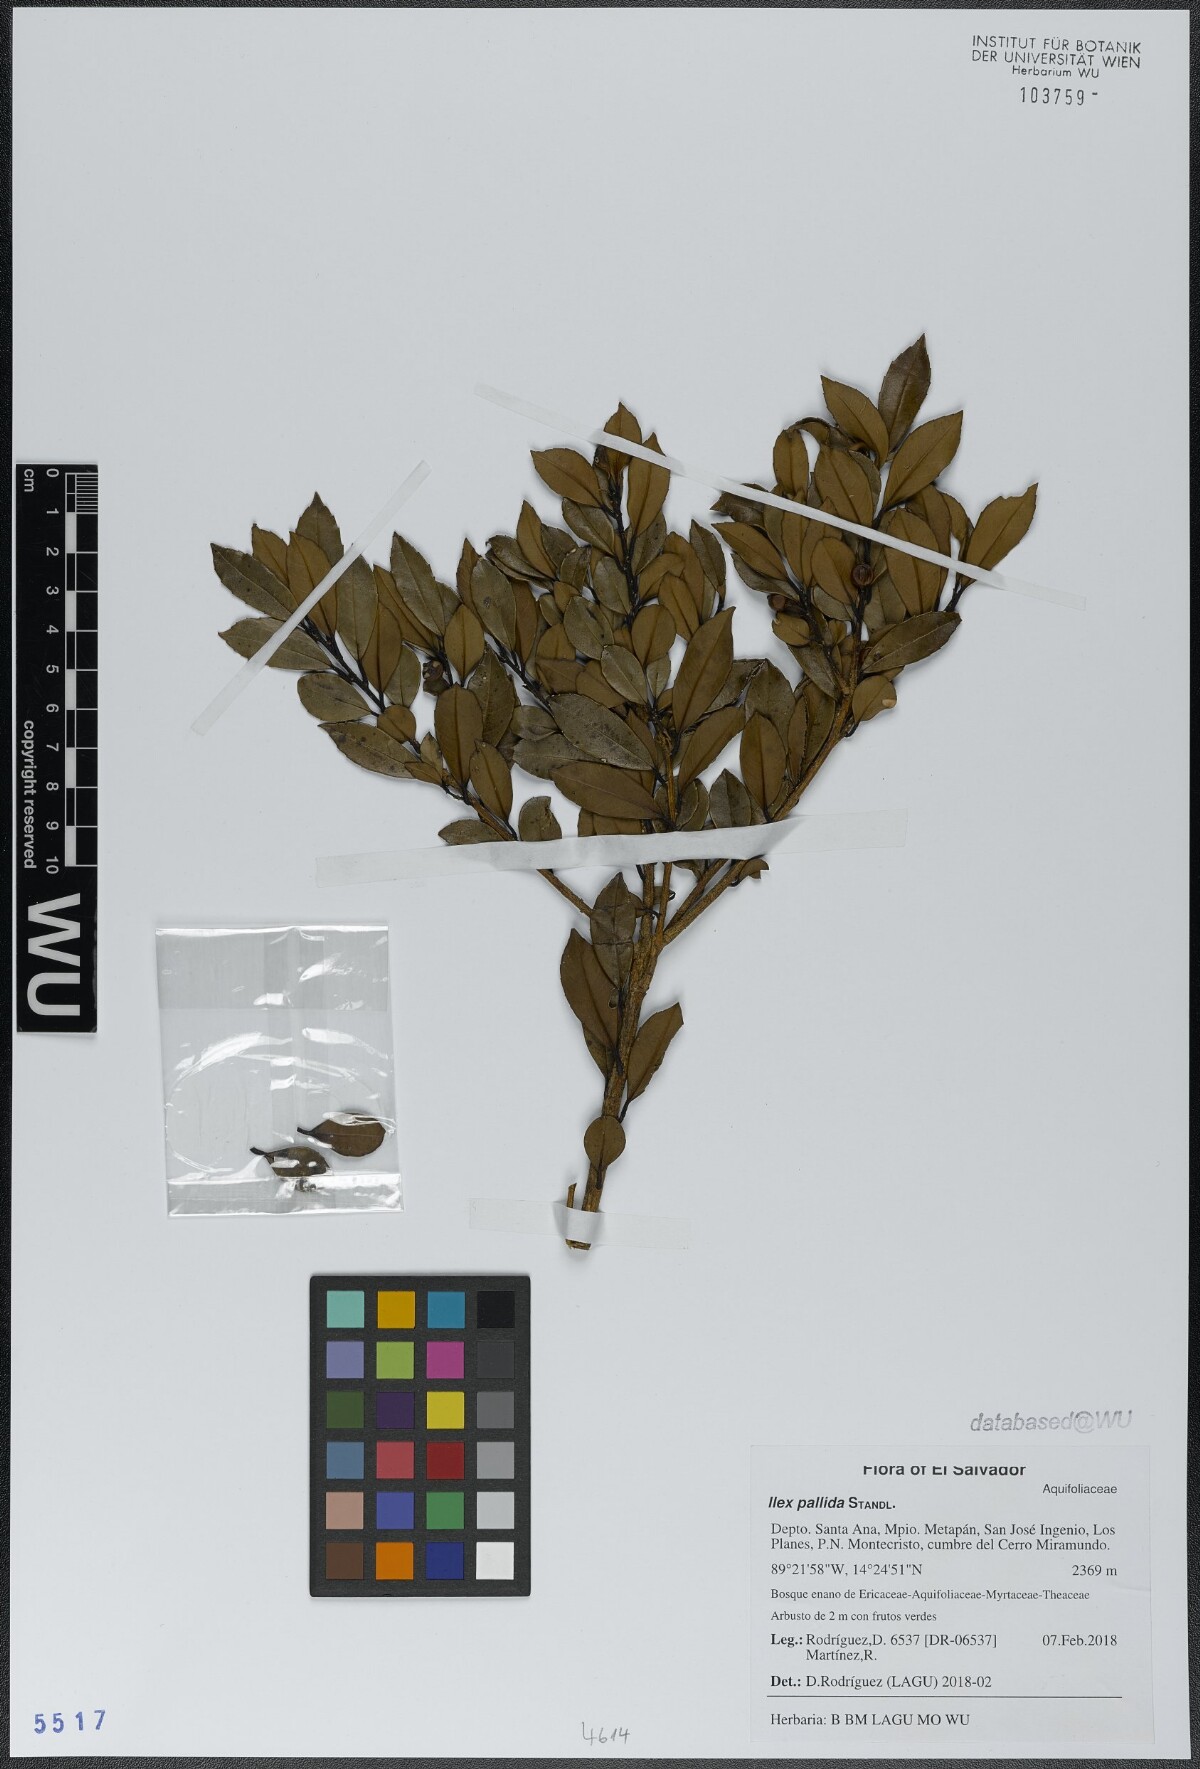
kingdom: Plantae
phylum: Tracheophyta
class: Magnoliopsida
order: Aquifoliales
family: Aquifoliaceae
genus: Ilex
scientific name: Ilex pallida
